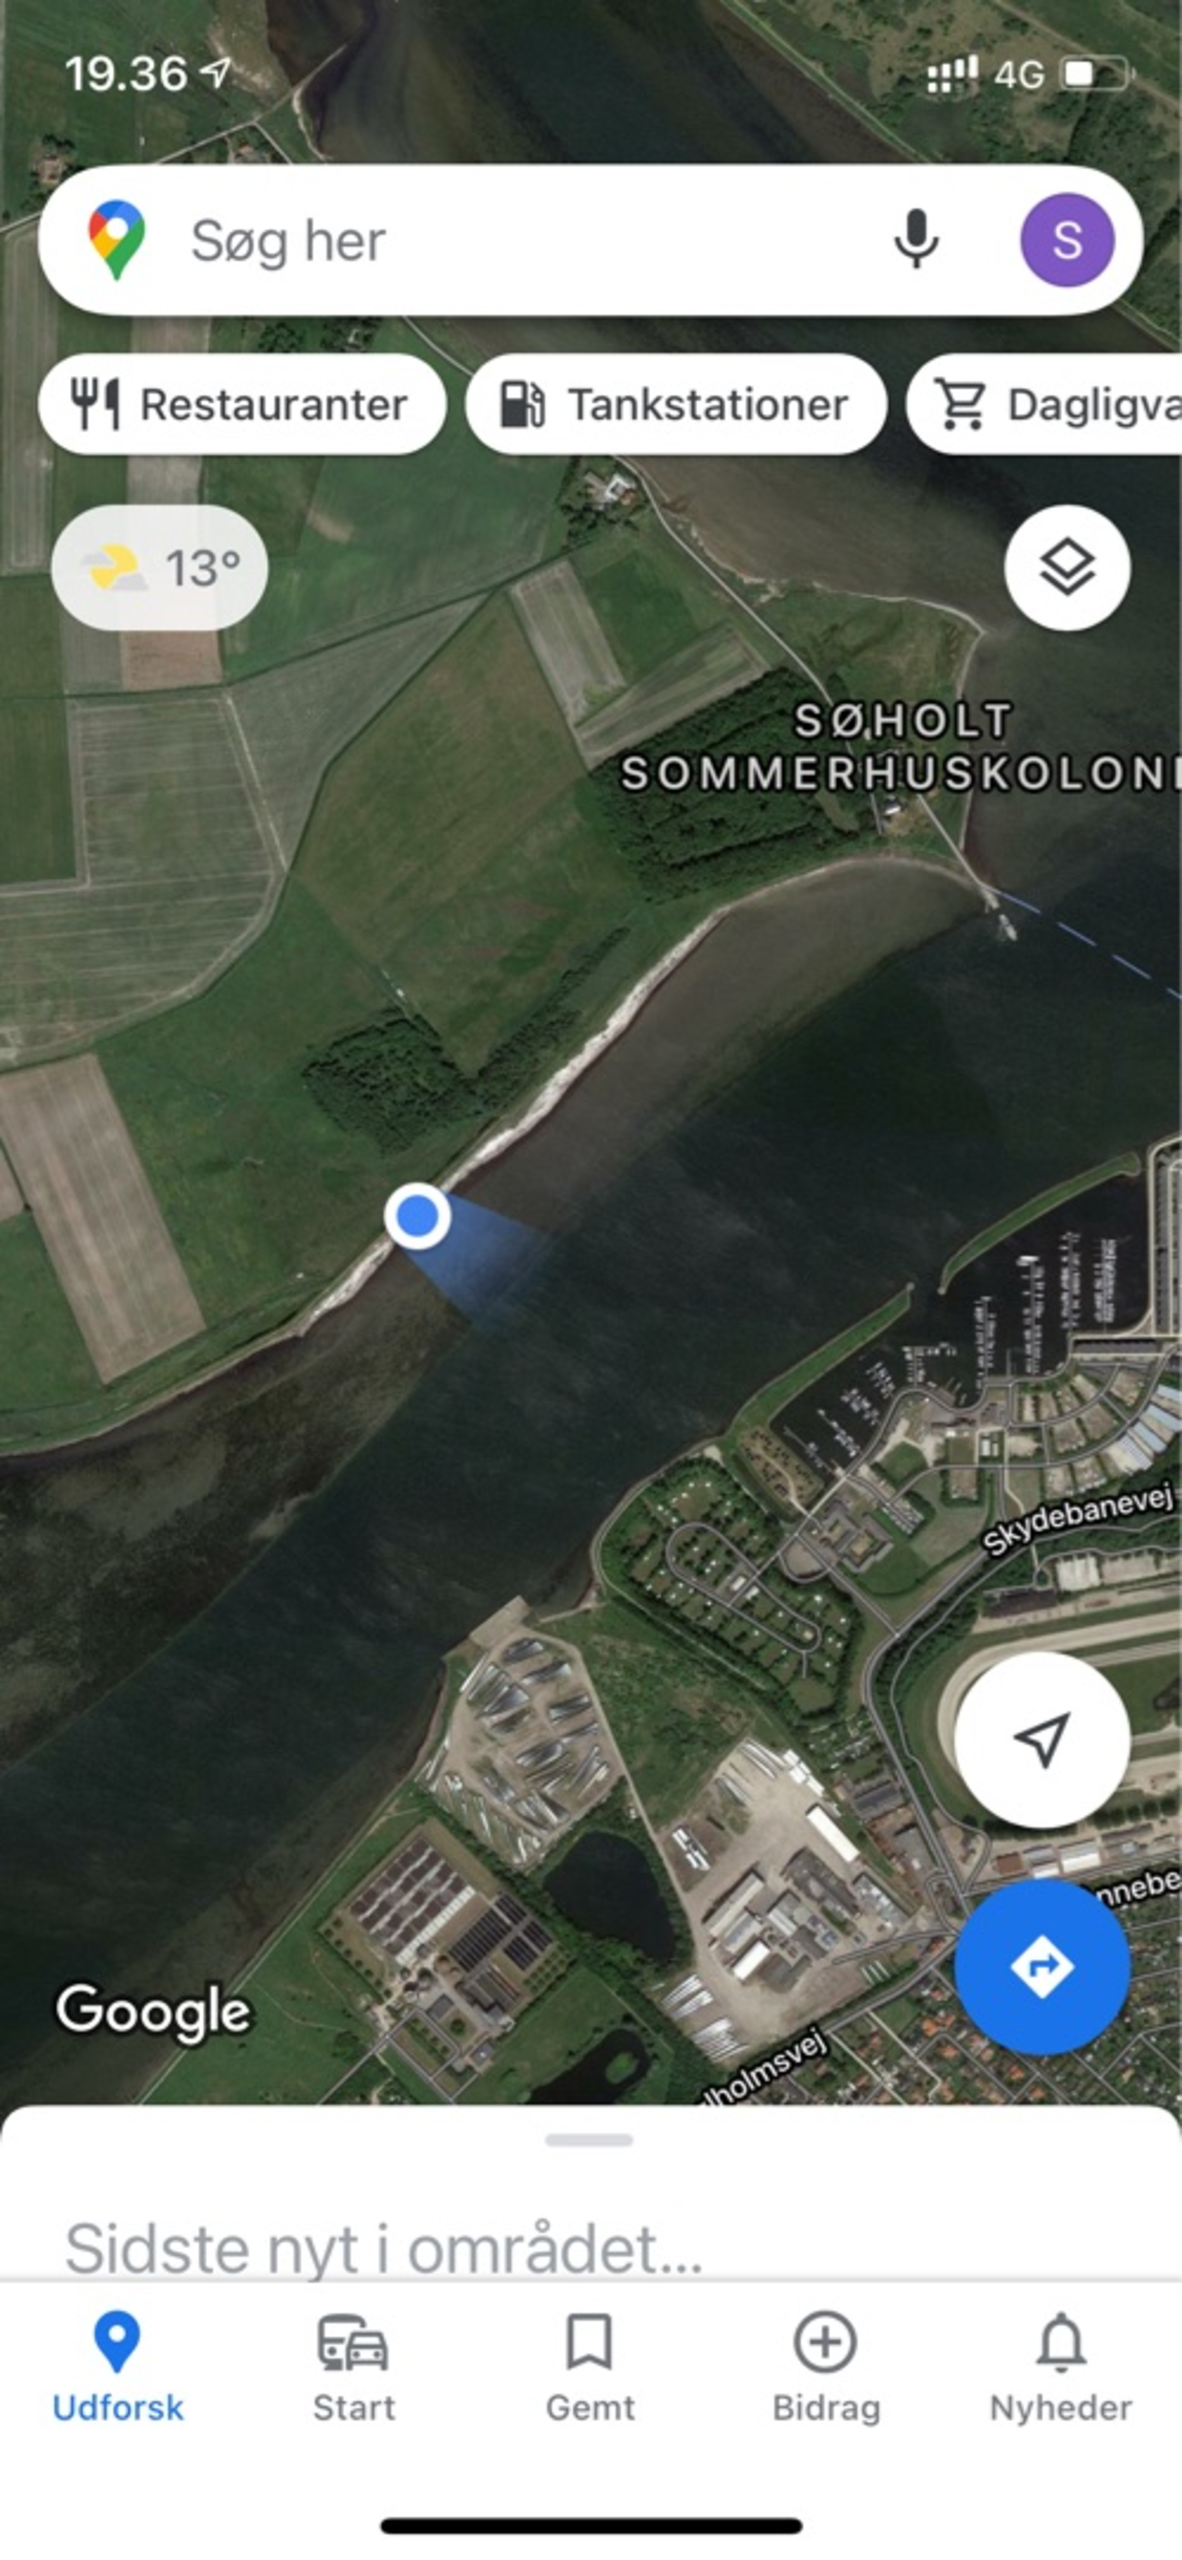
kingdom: Animalia
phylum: Chordata
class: Mammalia
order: Cetacea
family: Phocoenidae
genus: Phocoena
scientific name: Phocoena phocoena
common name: Marsvin
